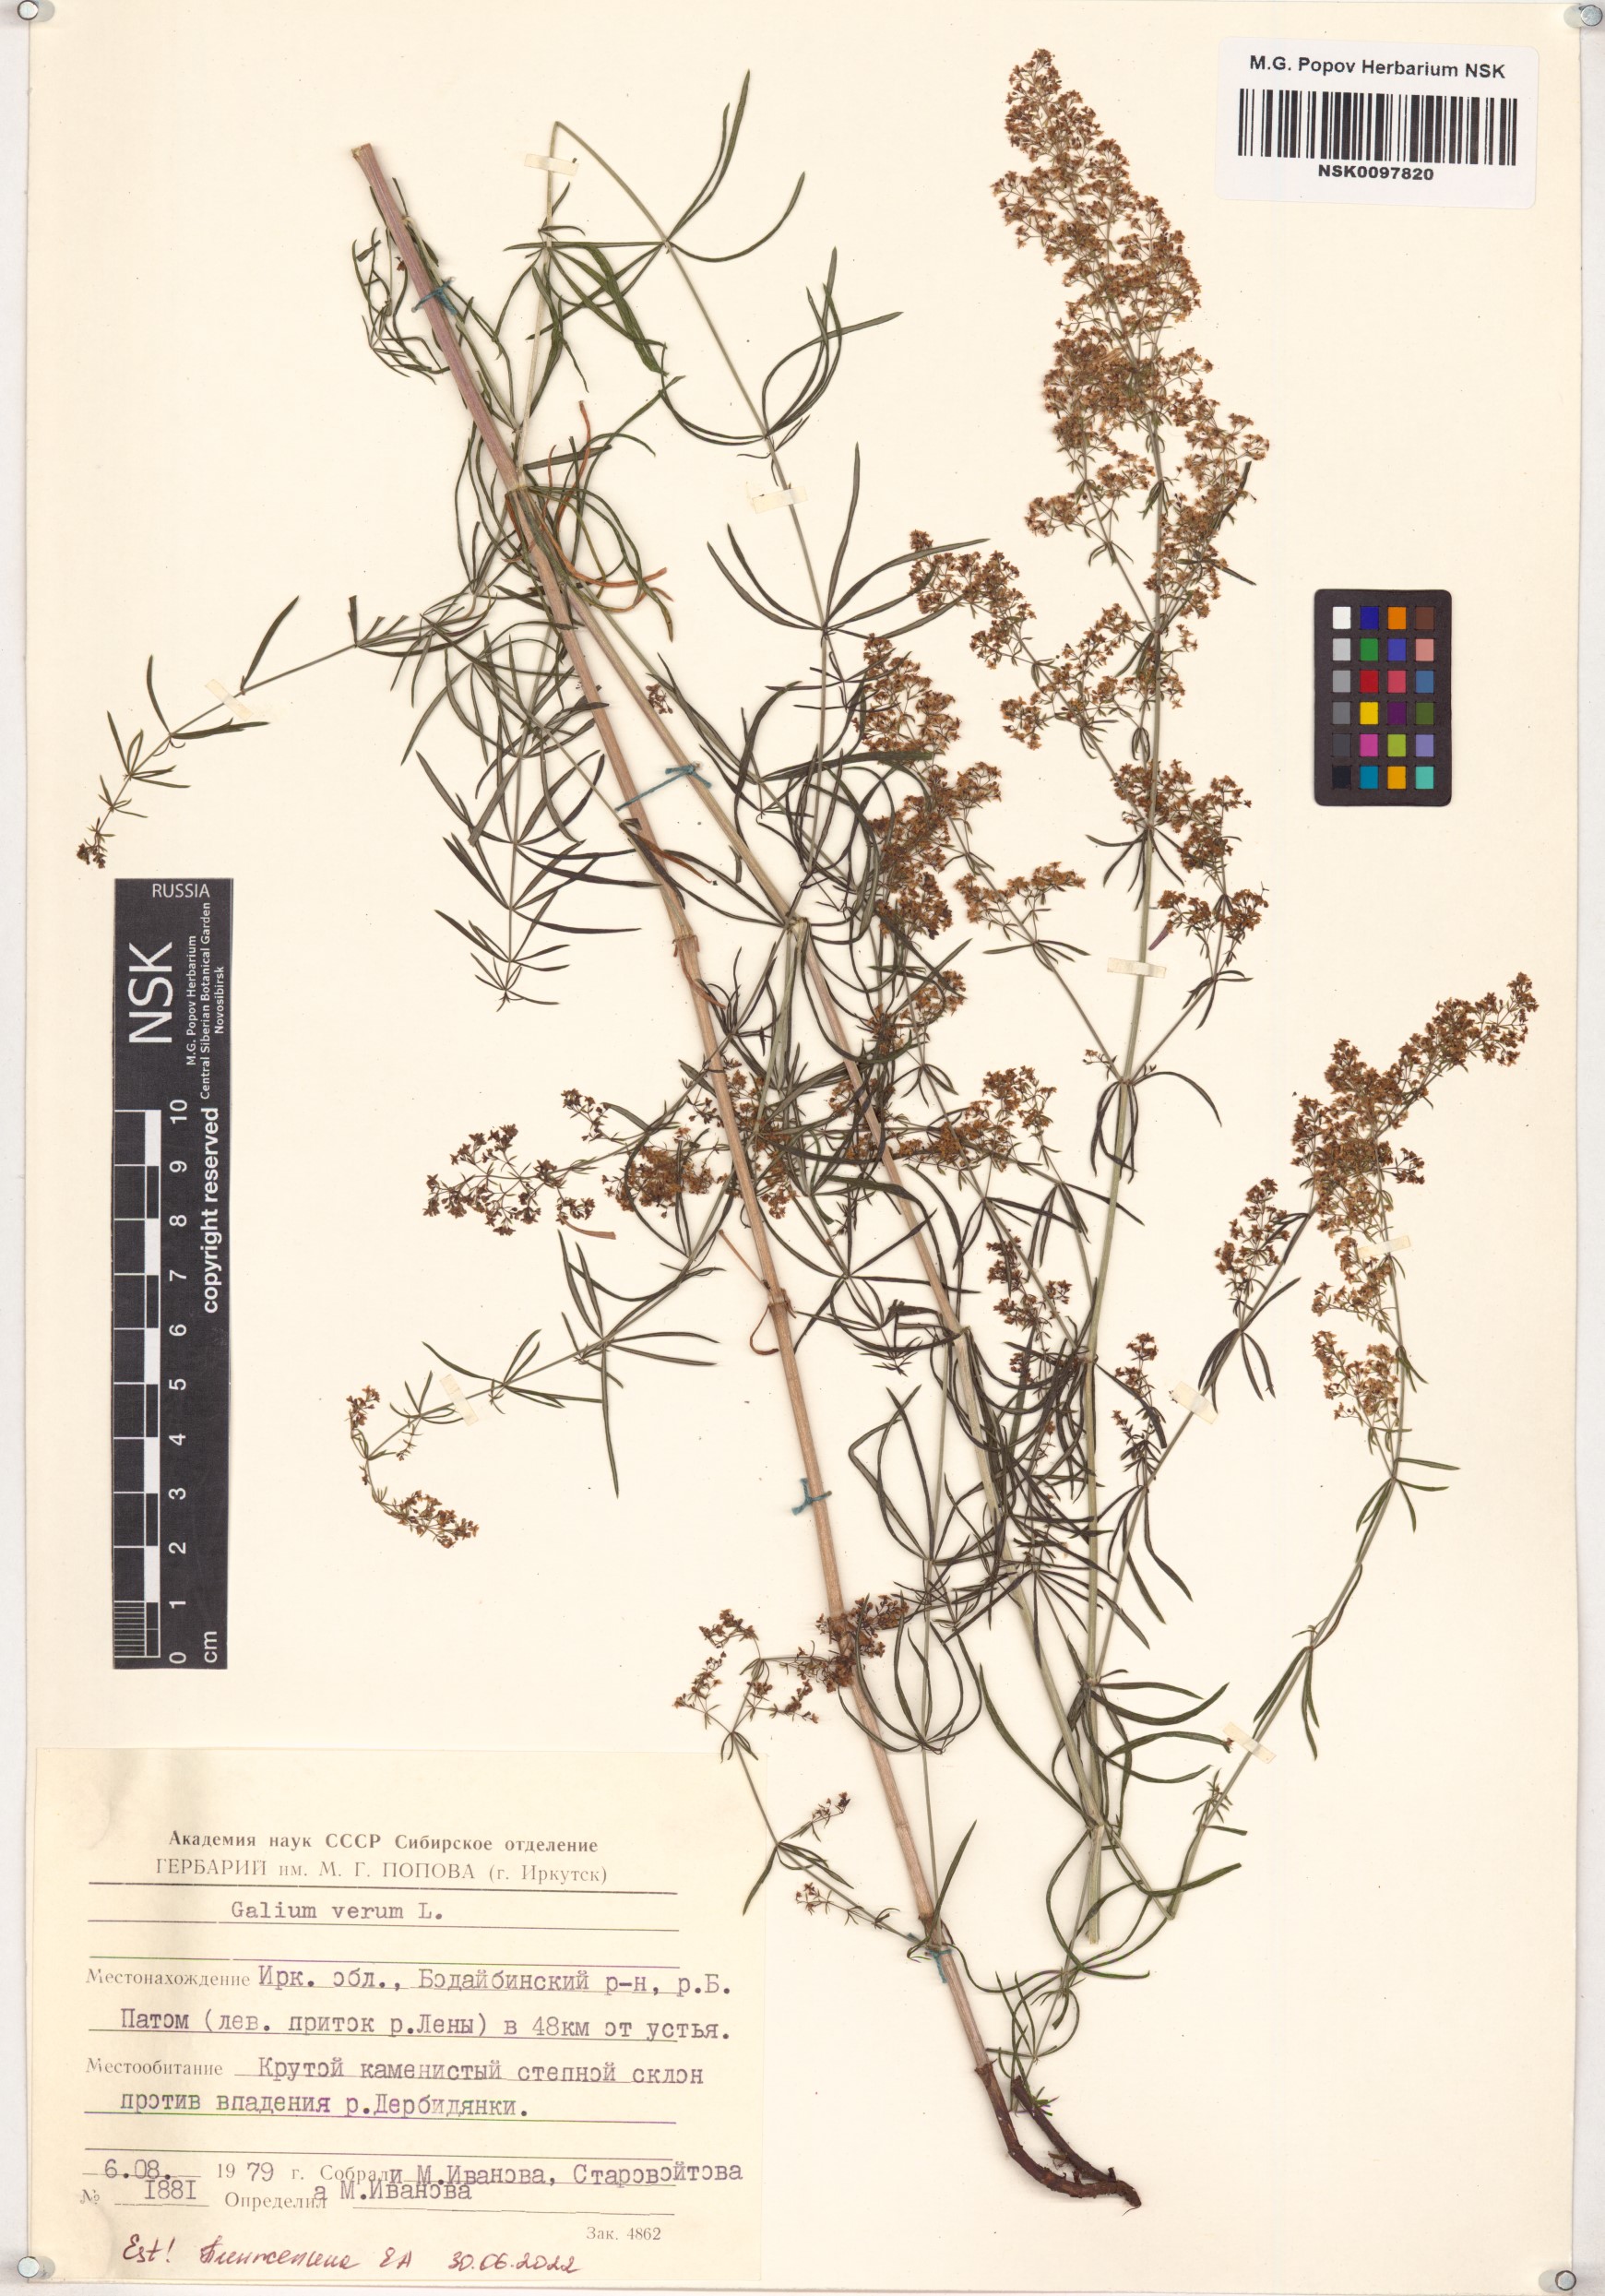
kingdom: Plantae
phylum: Tracheophyta
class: Magnoliopsida
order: Gentianales
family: Rubiaceae
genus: Galium
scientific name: Galium verum
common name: Lady's bedstraw
